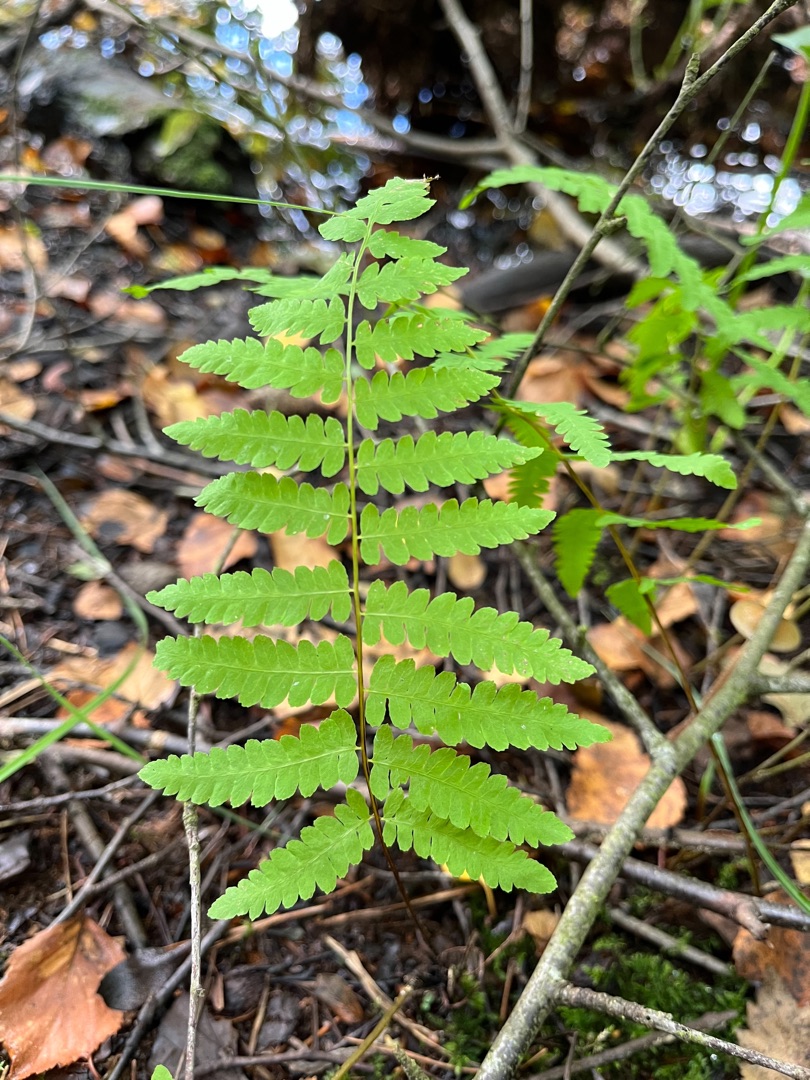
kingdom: Plantae
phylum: Tracheophyta
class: Polypodiopsida
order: Polypodiales
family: Thelypteridaceae
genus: Thelypteris
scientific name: Thelypteris palustris
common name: Kærmangeløv
